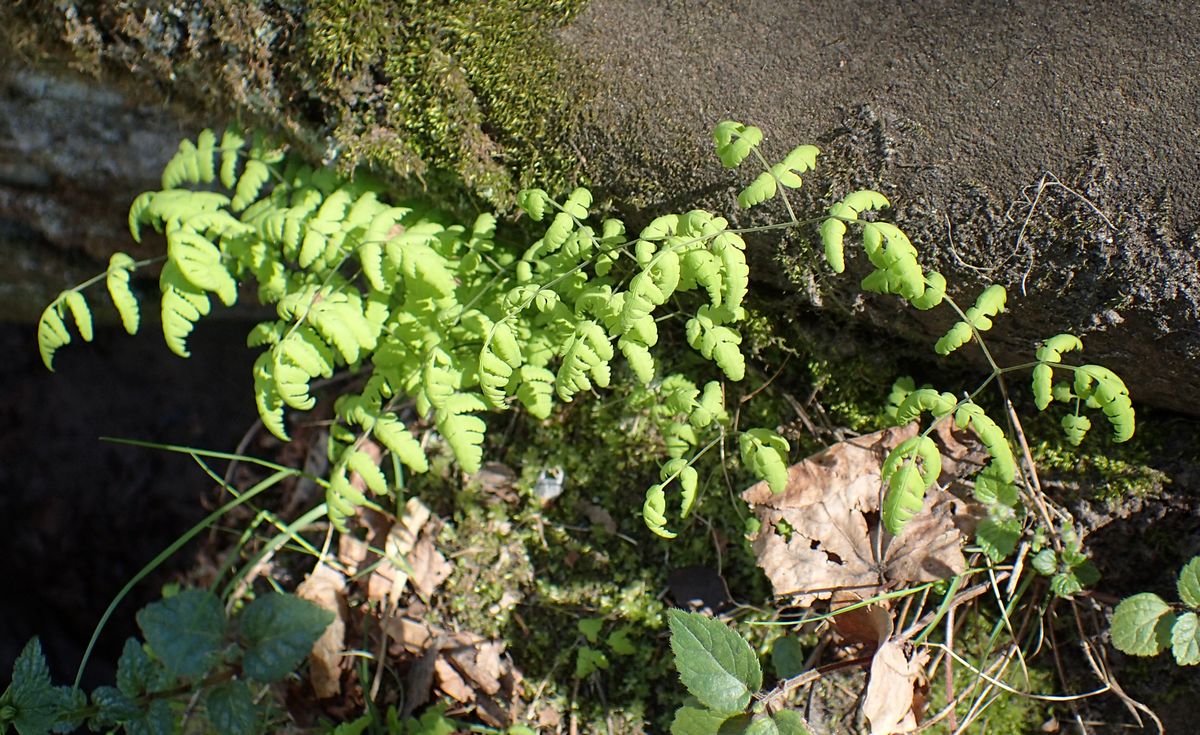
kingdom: Plantae
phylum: Tracheophyta
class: Polypodiopsida
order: Polypodiales
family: Cystopteridaceae
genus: Gymnocarpium
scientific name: Gymnocarpium dryopteris
